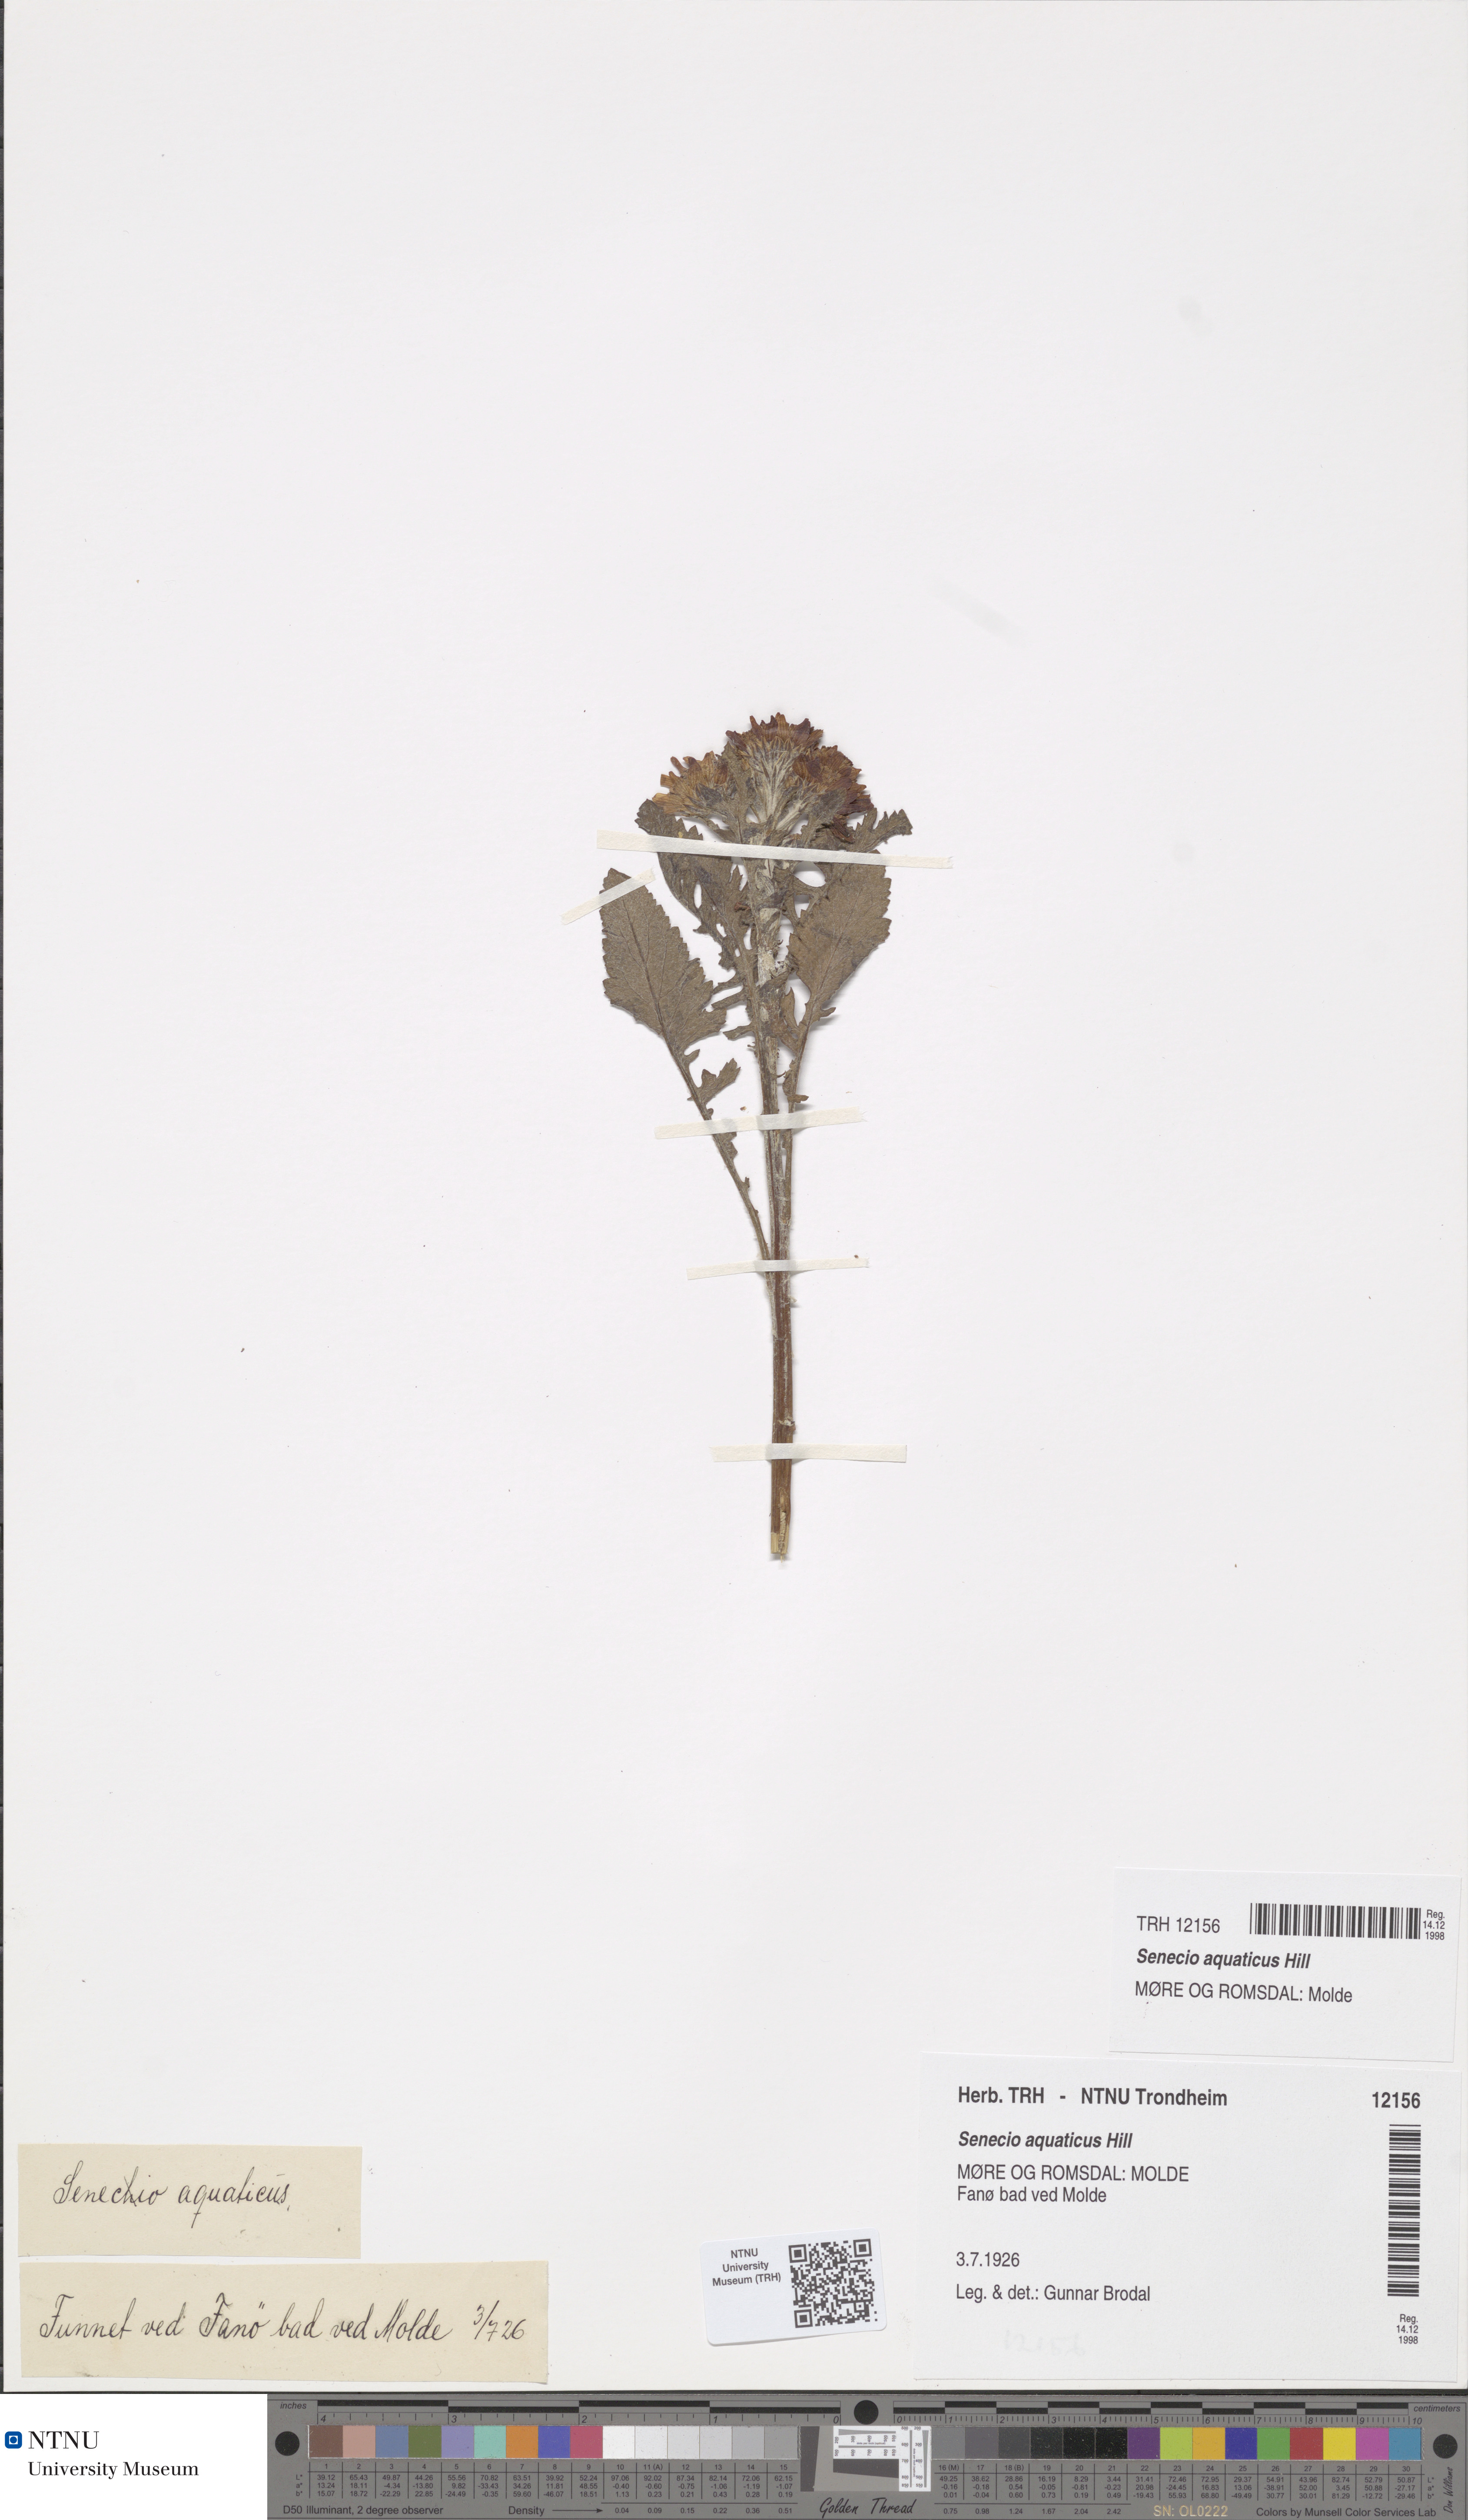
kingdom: Plantae
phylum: Tracheophyta
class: Magnoliopsida
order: Asterales
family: Asteraceae
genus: Jacobaea
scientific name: Jacobaea aquatica
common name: Water ragwort
